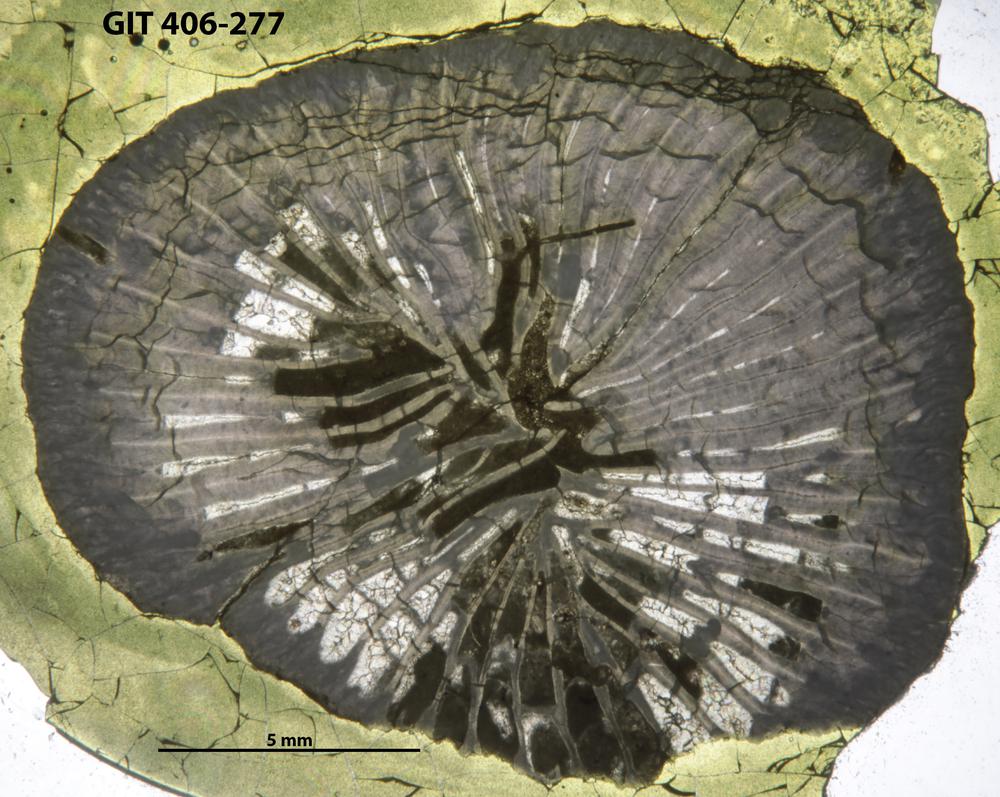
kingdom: Animalia
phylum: Cnidaria
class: Anthozoa
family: Streptelasmatidae
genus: Grewingkia
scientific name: Grewingkia Streptelasma europaeum
